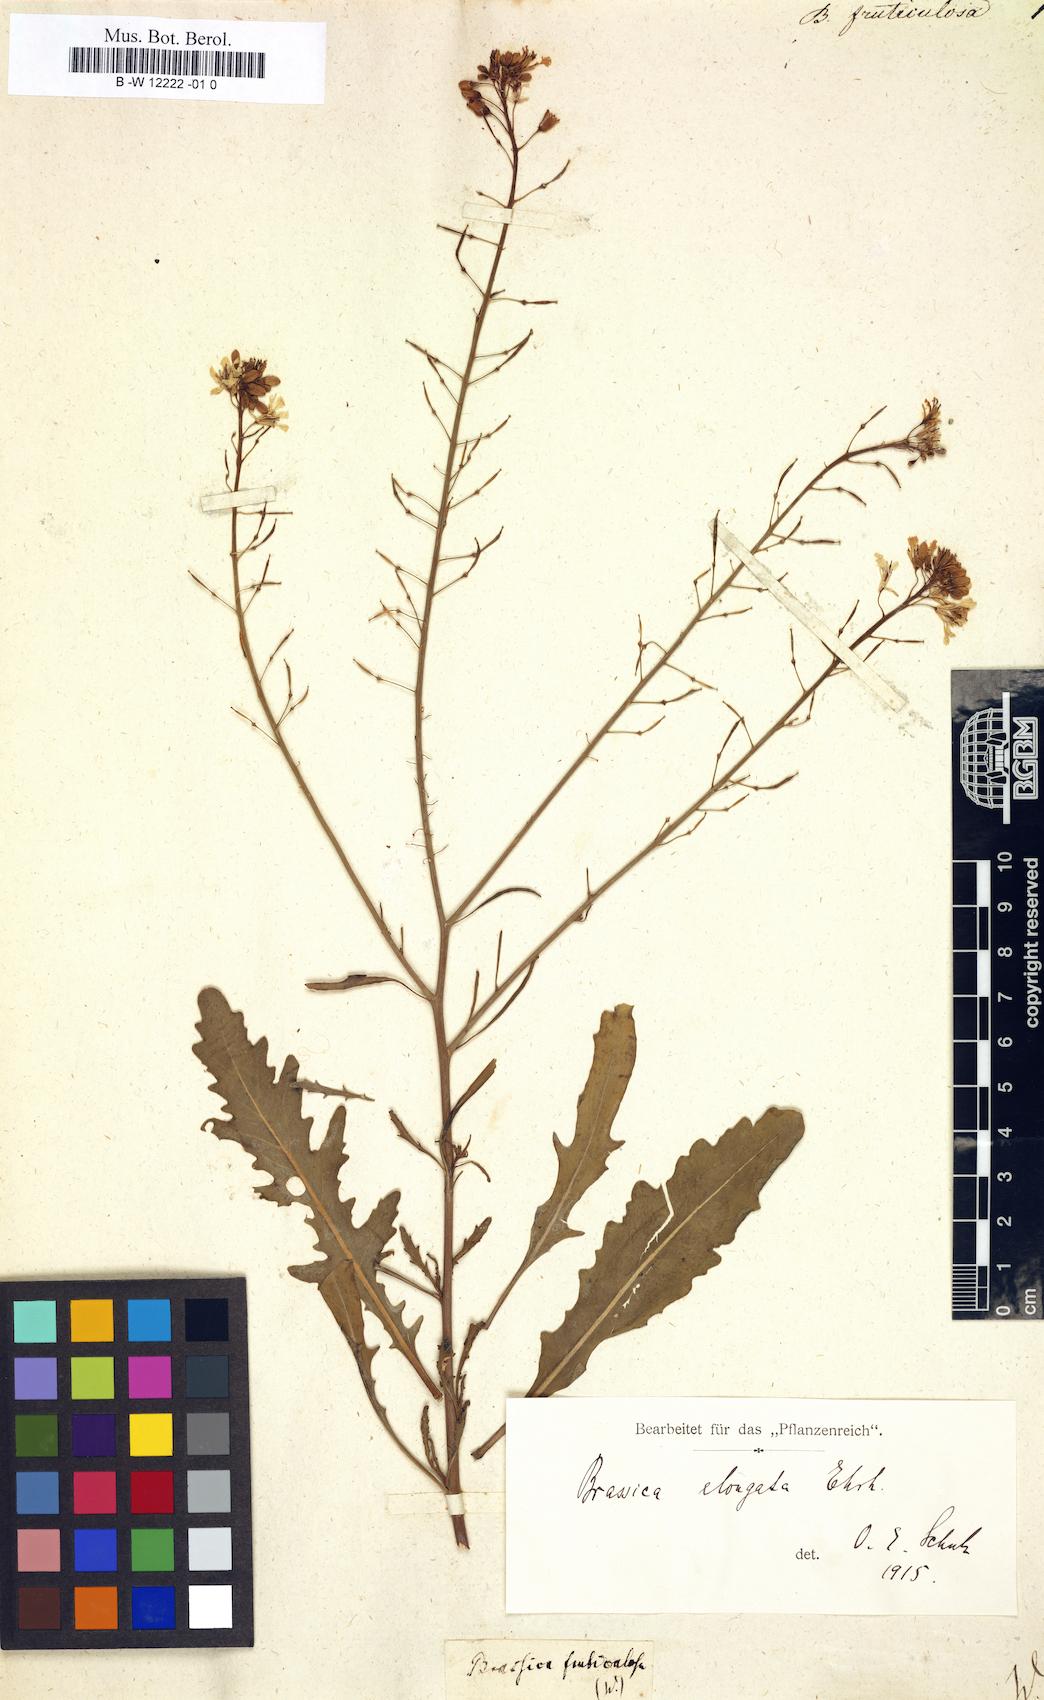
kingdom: Plantae
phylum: Tracheophyta
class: Magnoliopsida
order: Brassicales
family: Brassicaceae
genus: Brassica
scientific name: Brassica fruticulosa
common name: Twiggy turnip
